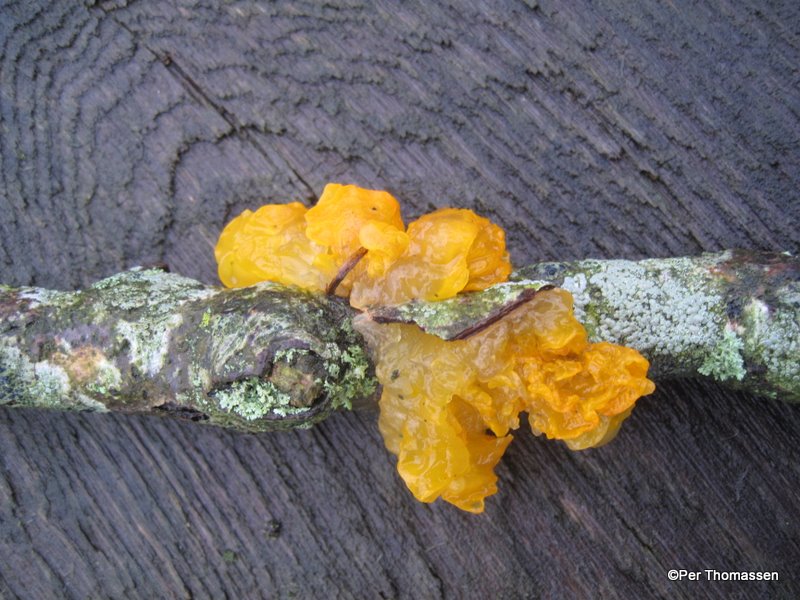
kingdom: Fungi
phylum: Basidiomycota
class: Tremellomycetes
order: Tremellales
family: Tremellaceae
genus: Tremella
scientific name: Tremella mesenterica
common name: gul bævresvamp
